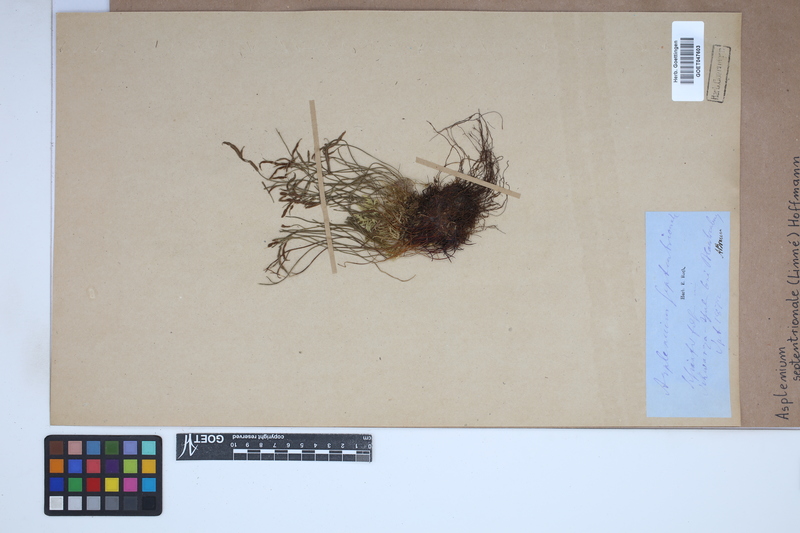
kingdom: Plantae
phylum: Tracheophyta
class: Polypodiopsida
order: Polypodiales
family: Aspleniaceae
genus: Asplenium
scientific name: Asplenium septentrionale
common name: Forked spleenwort
